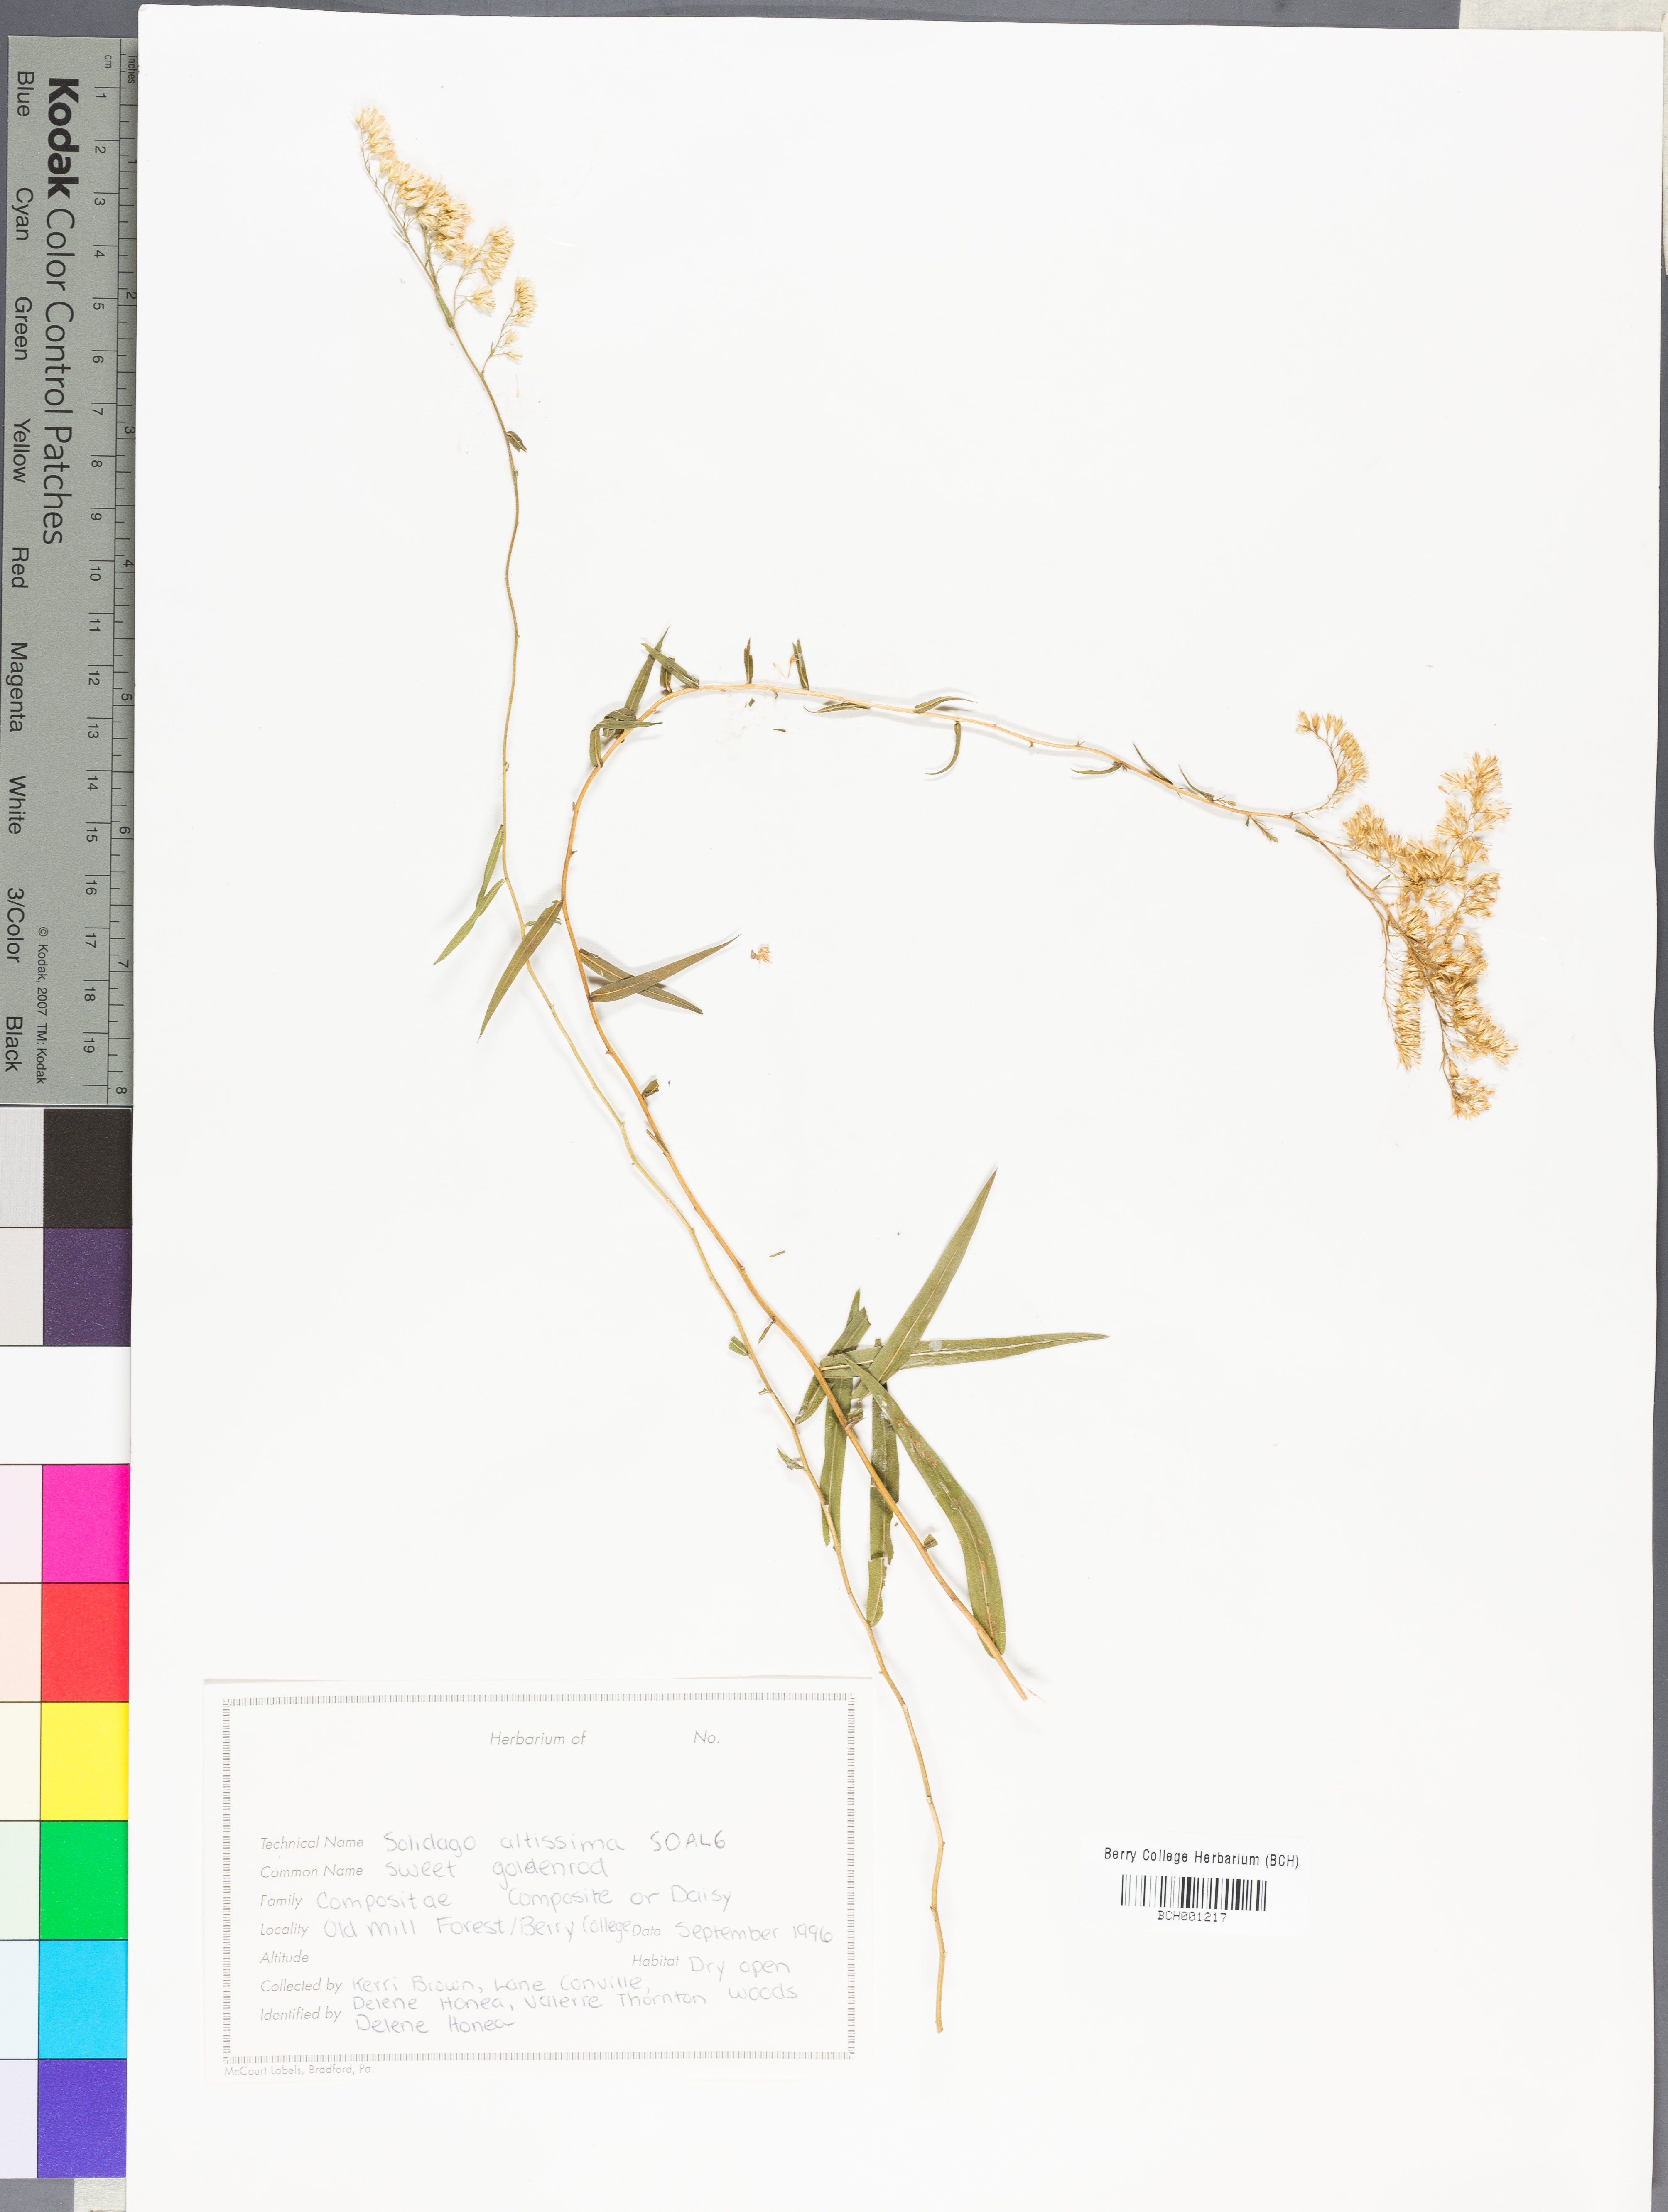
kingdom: Plantae
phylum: Tracheophyta
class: Magnoliopsida
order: Asterales
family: Asteraceae
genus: Solidago
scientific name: Solidago altissima
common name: Late goldenrod
